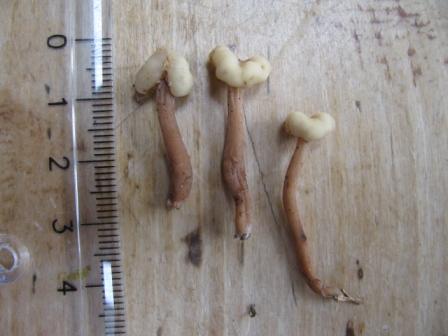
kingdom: Fungi
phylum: Ascomycota
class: Leotiomycetes
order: Rhytismatales
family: Cudoniaceae
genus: Cudonia
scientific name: Cudonia circinans
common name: hekserings-hjelmmorkel
